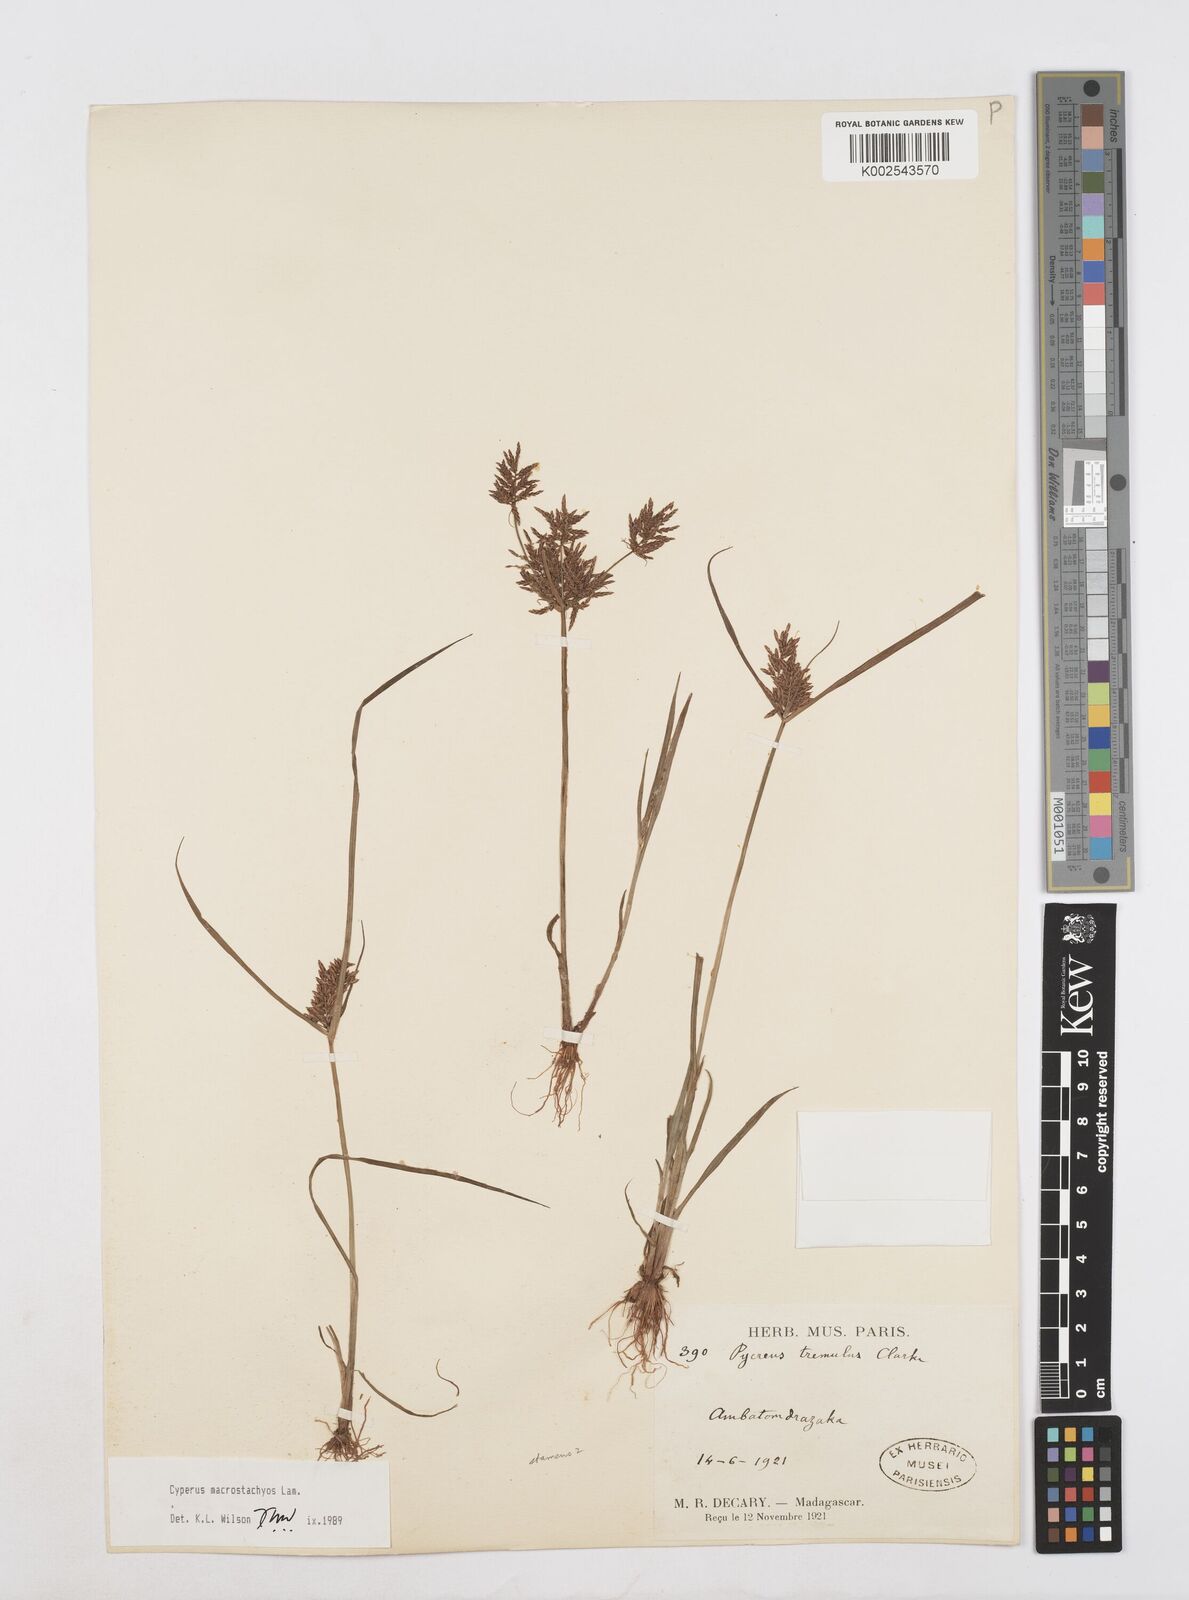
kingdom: Plantae
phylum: Tracheophyta
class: Liliopsida
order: Poales
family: Cyperaceae
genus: Cyperus
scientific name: Cyperus macrostachyos
